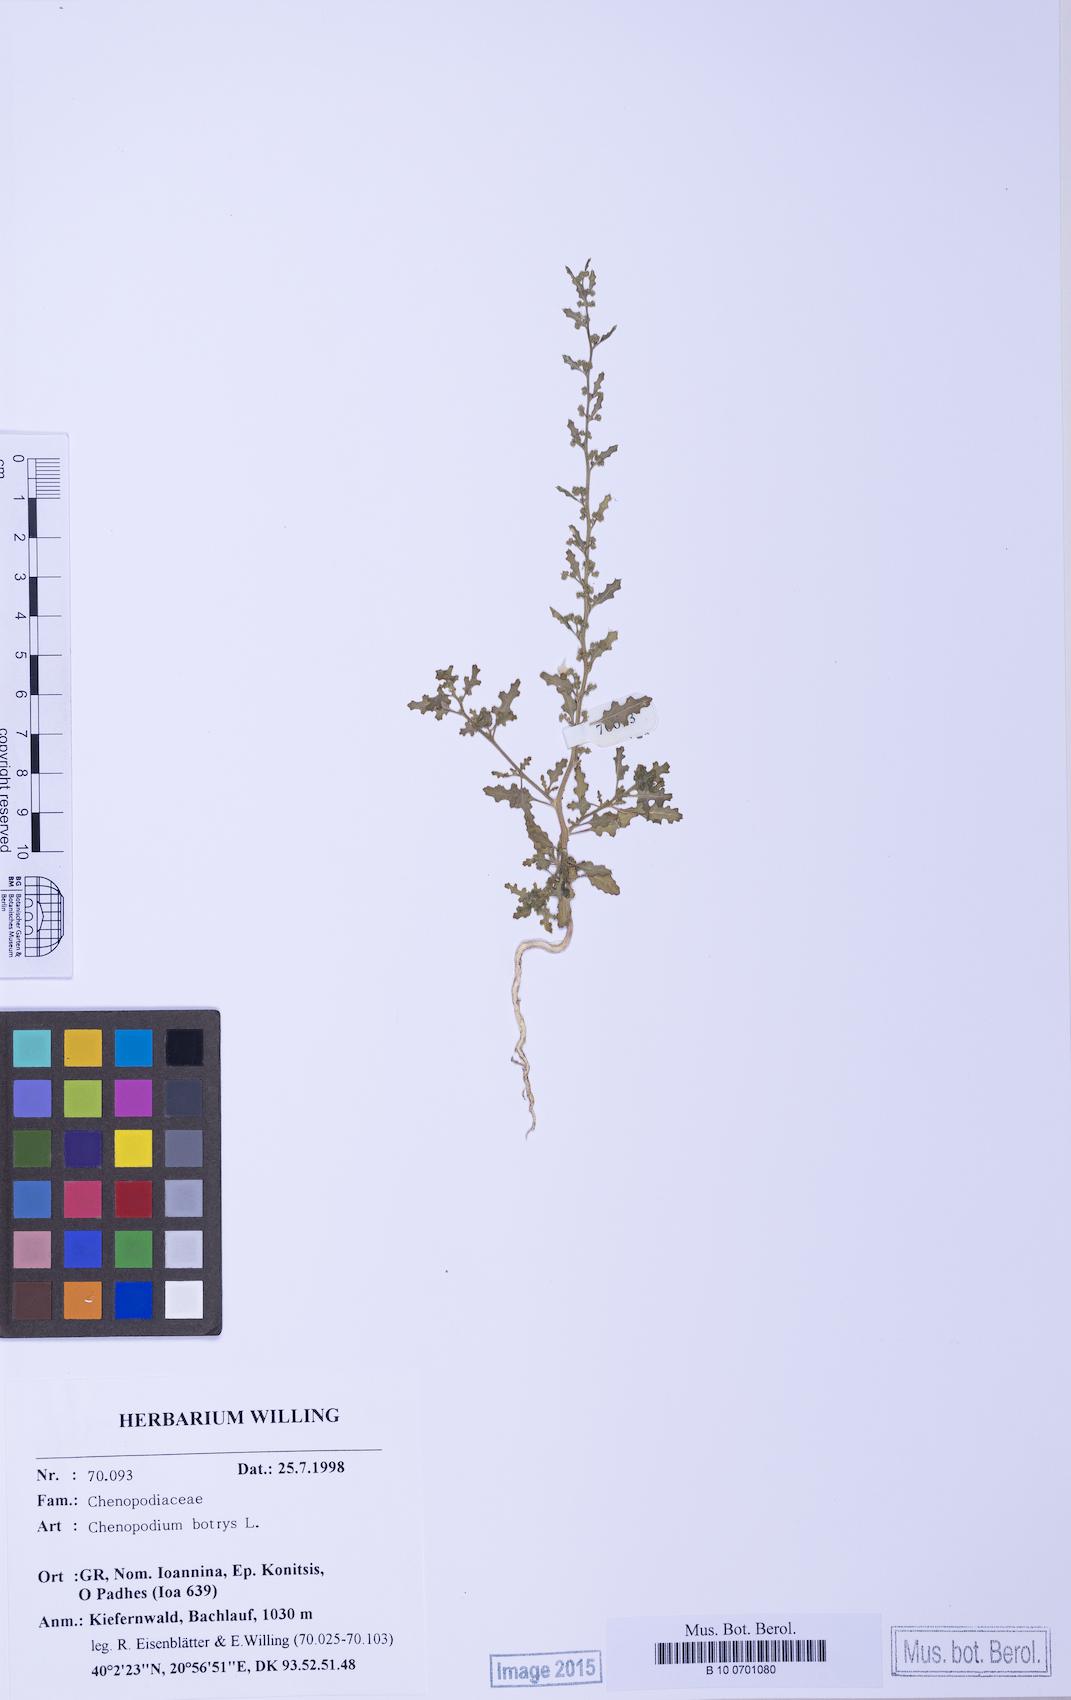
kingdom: Plantae
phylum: Tracheophyta
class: Magnoliopsida
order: Caryophyllales
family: Amaranthaceae
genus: Dysphania
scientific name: Dysphania botrys
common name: Feather-geranium
